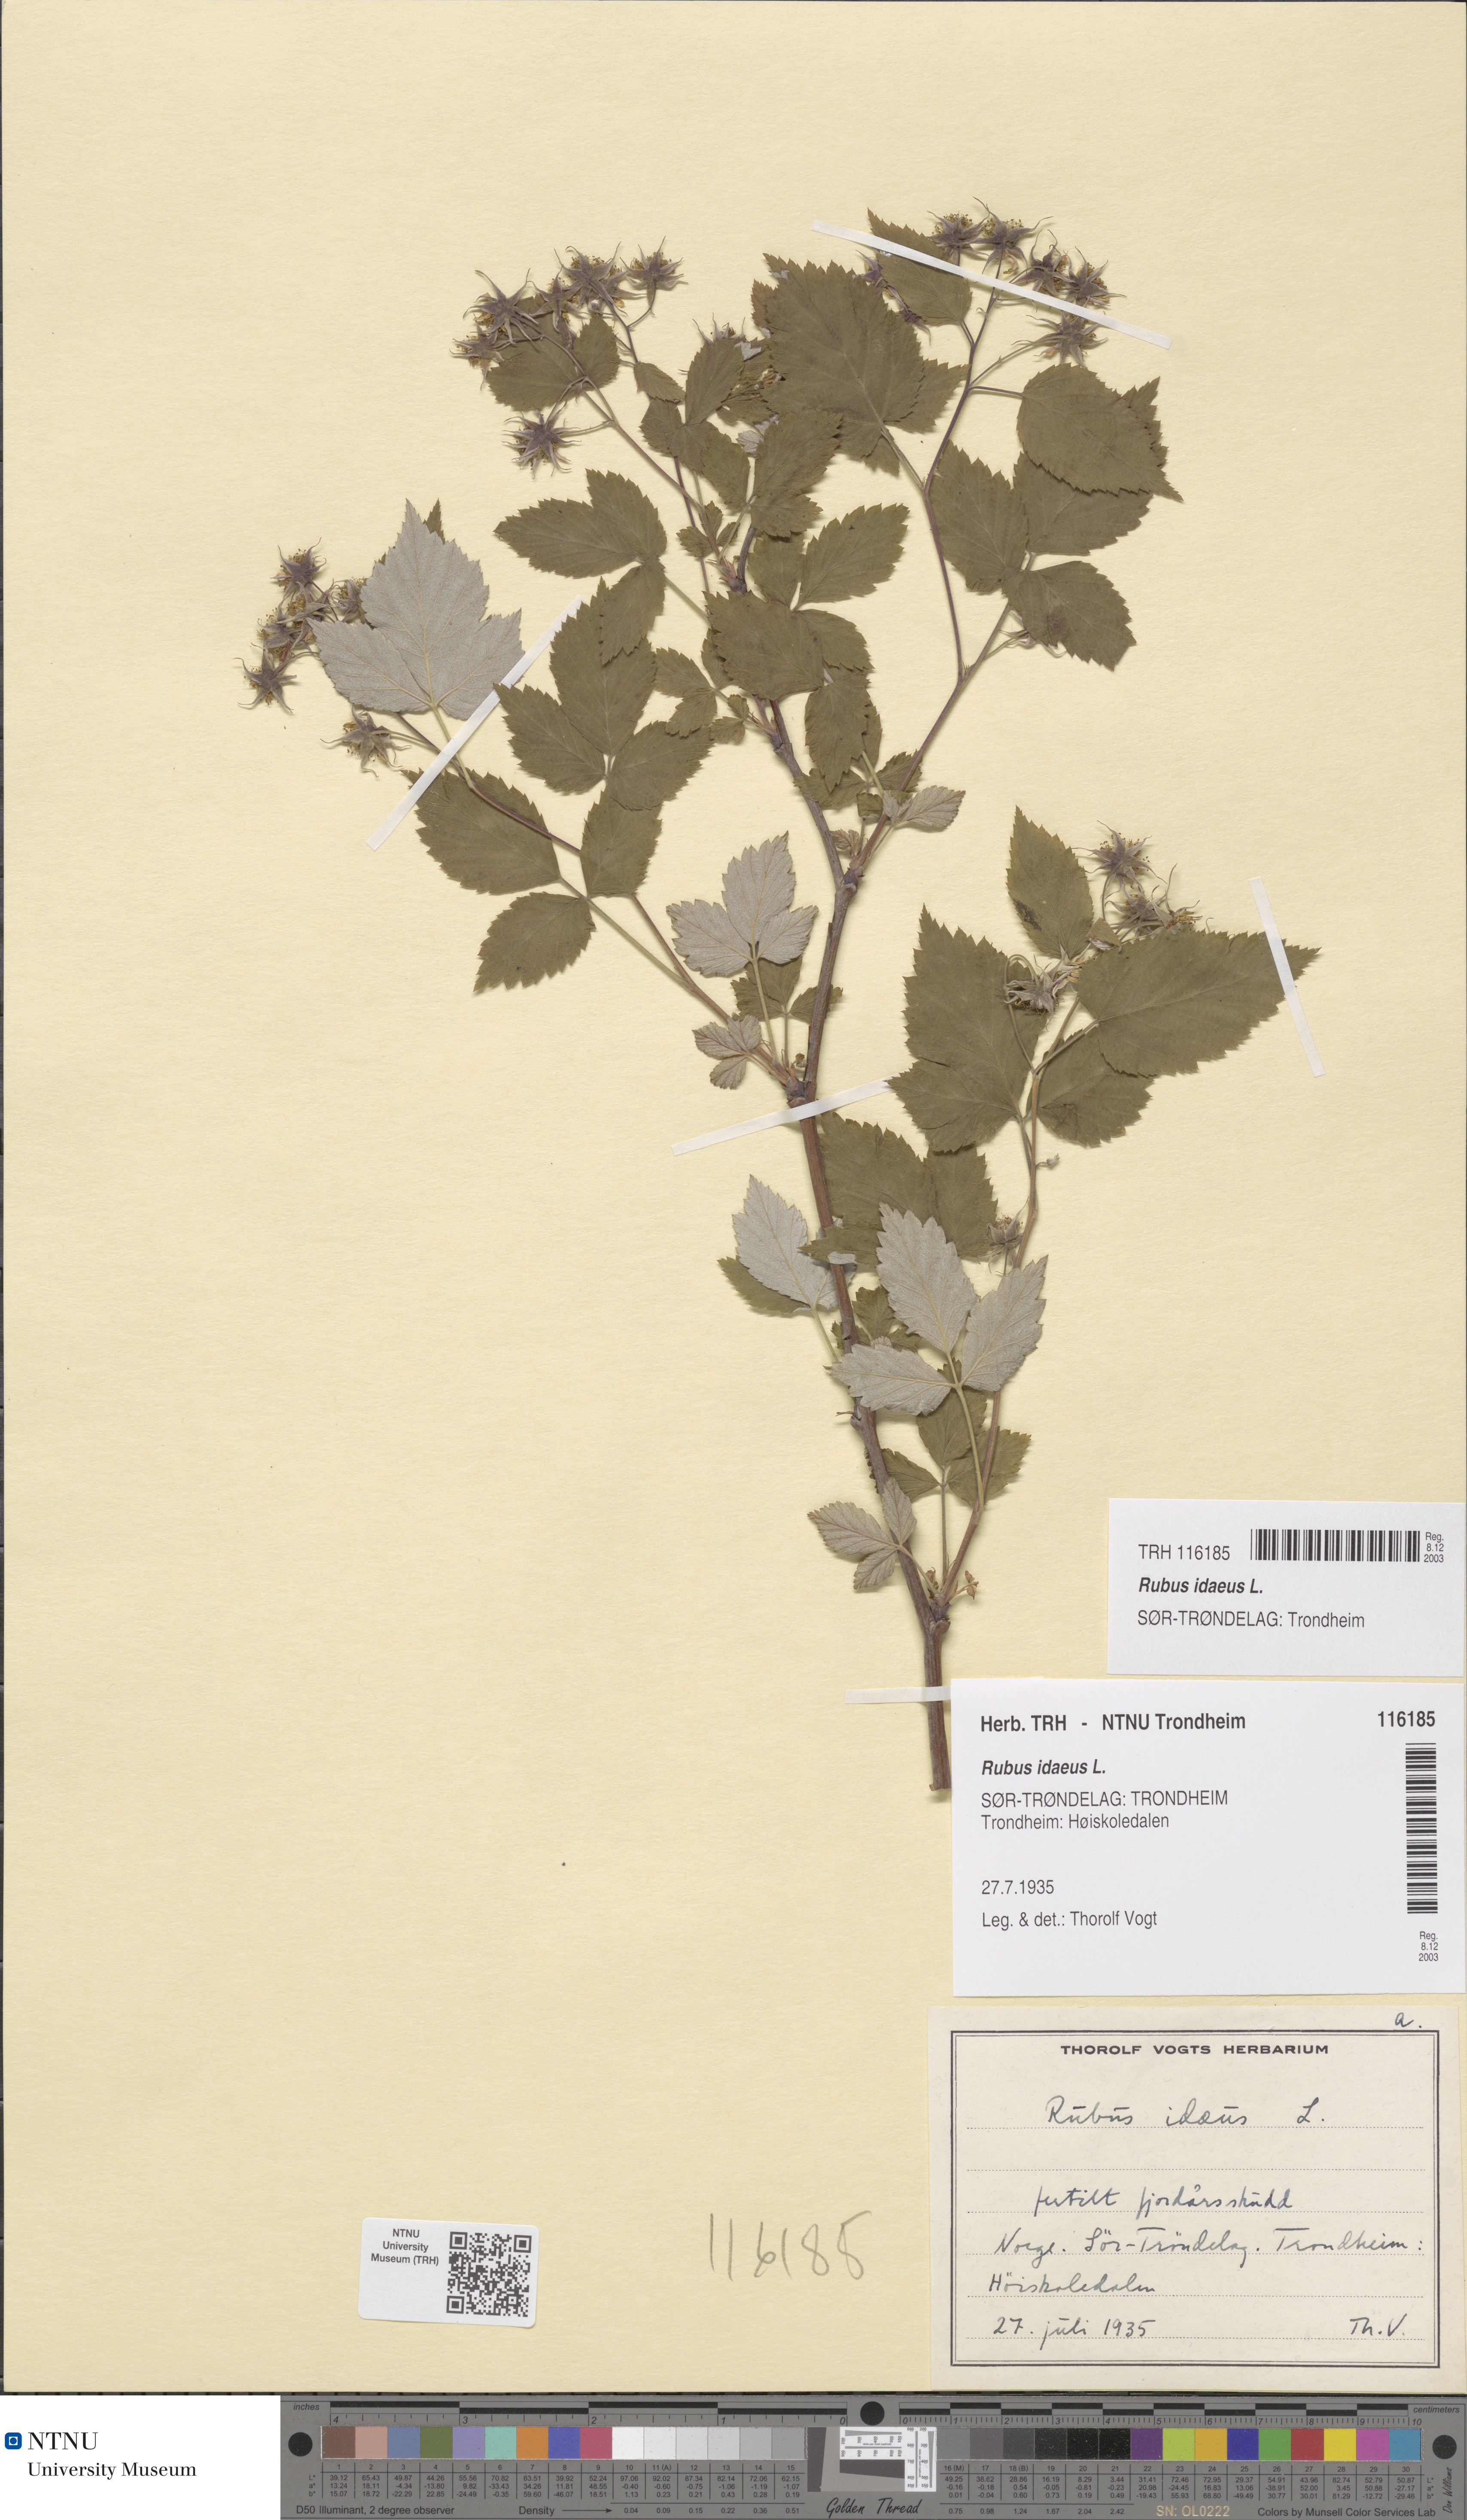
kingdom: Plantae
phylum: Tracheophyta
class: Magnoliopsida
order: Rosales
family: Rosaceae
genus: Rubus
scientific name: Rubus idaeus
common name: Raspberry
